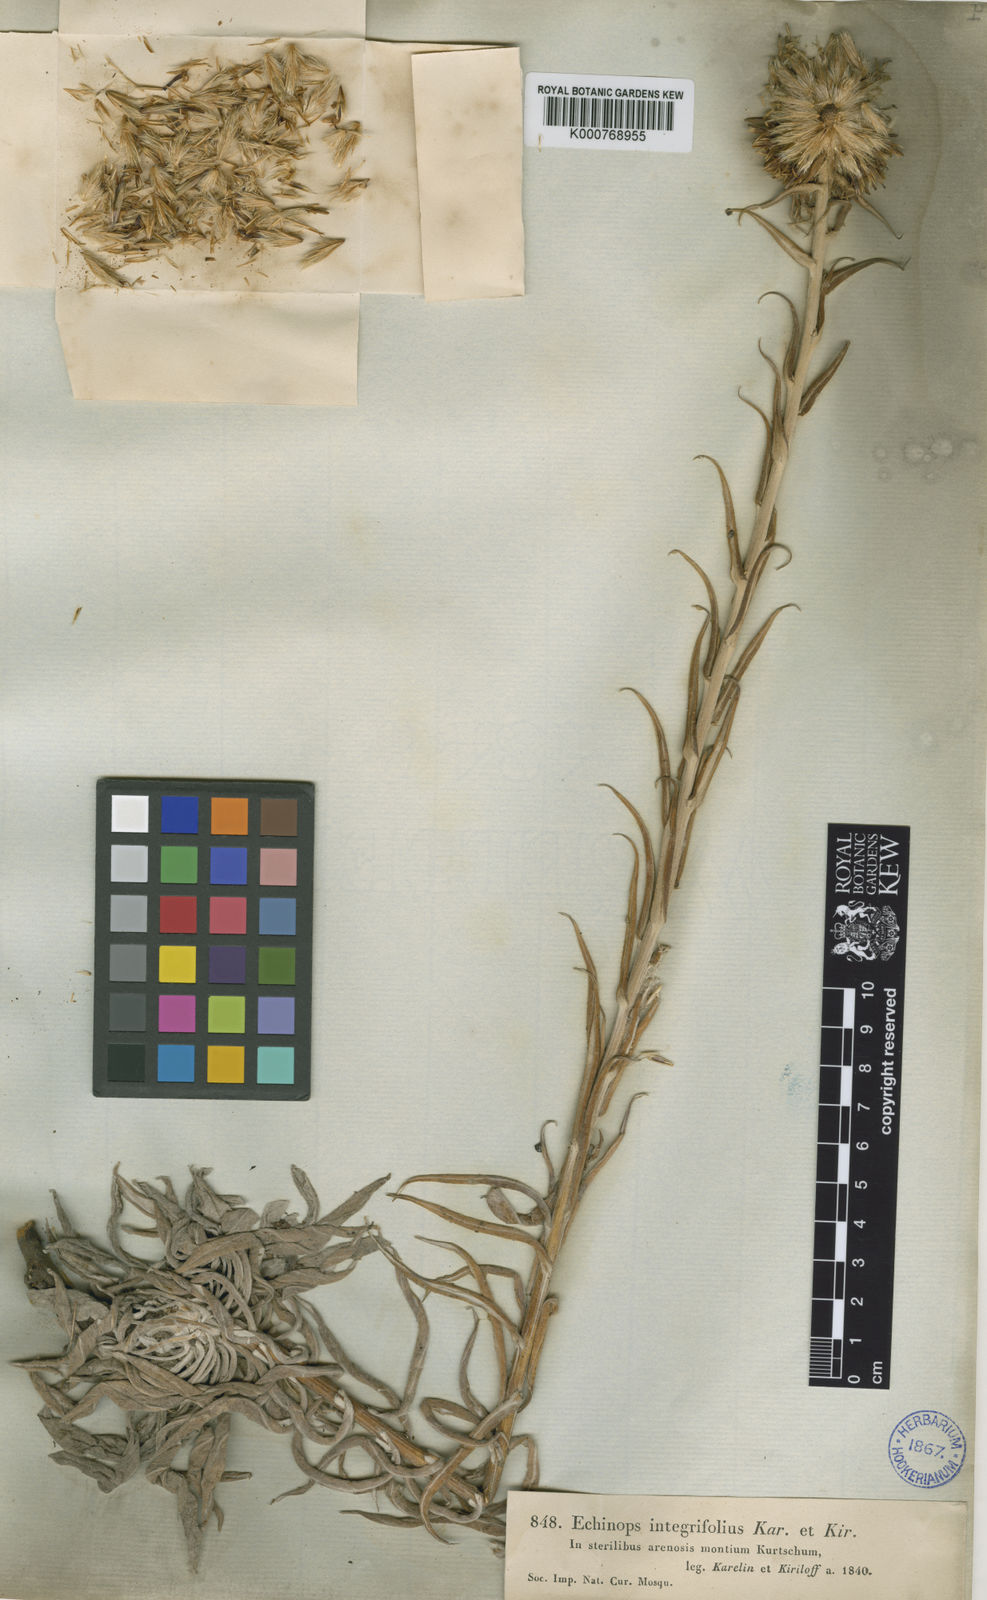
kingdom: Plantae
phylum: Tracheophyta
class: Magnoliopsida
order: Asterales
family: Asteraceae
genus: Echinops
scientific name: Echinops integrifolius
